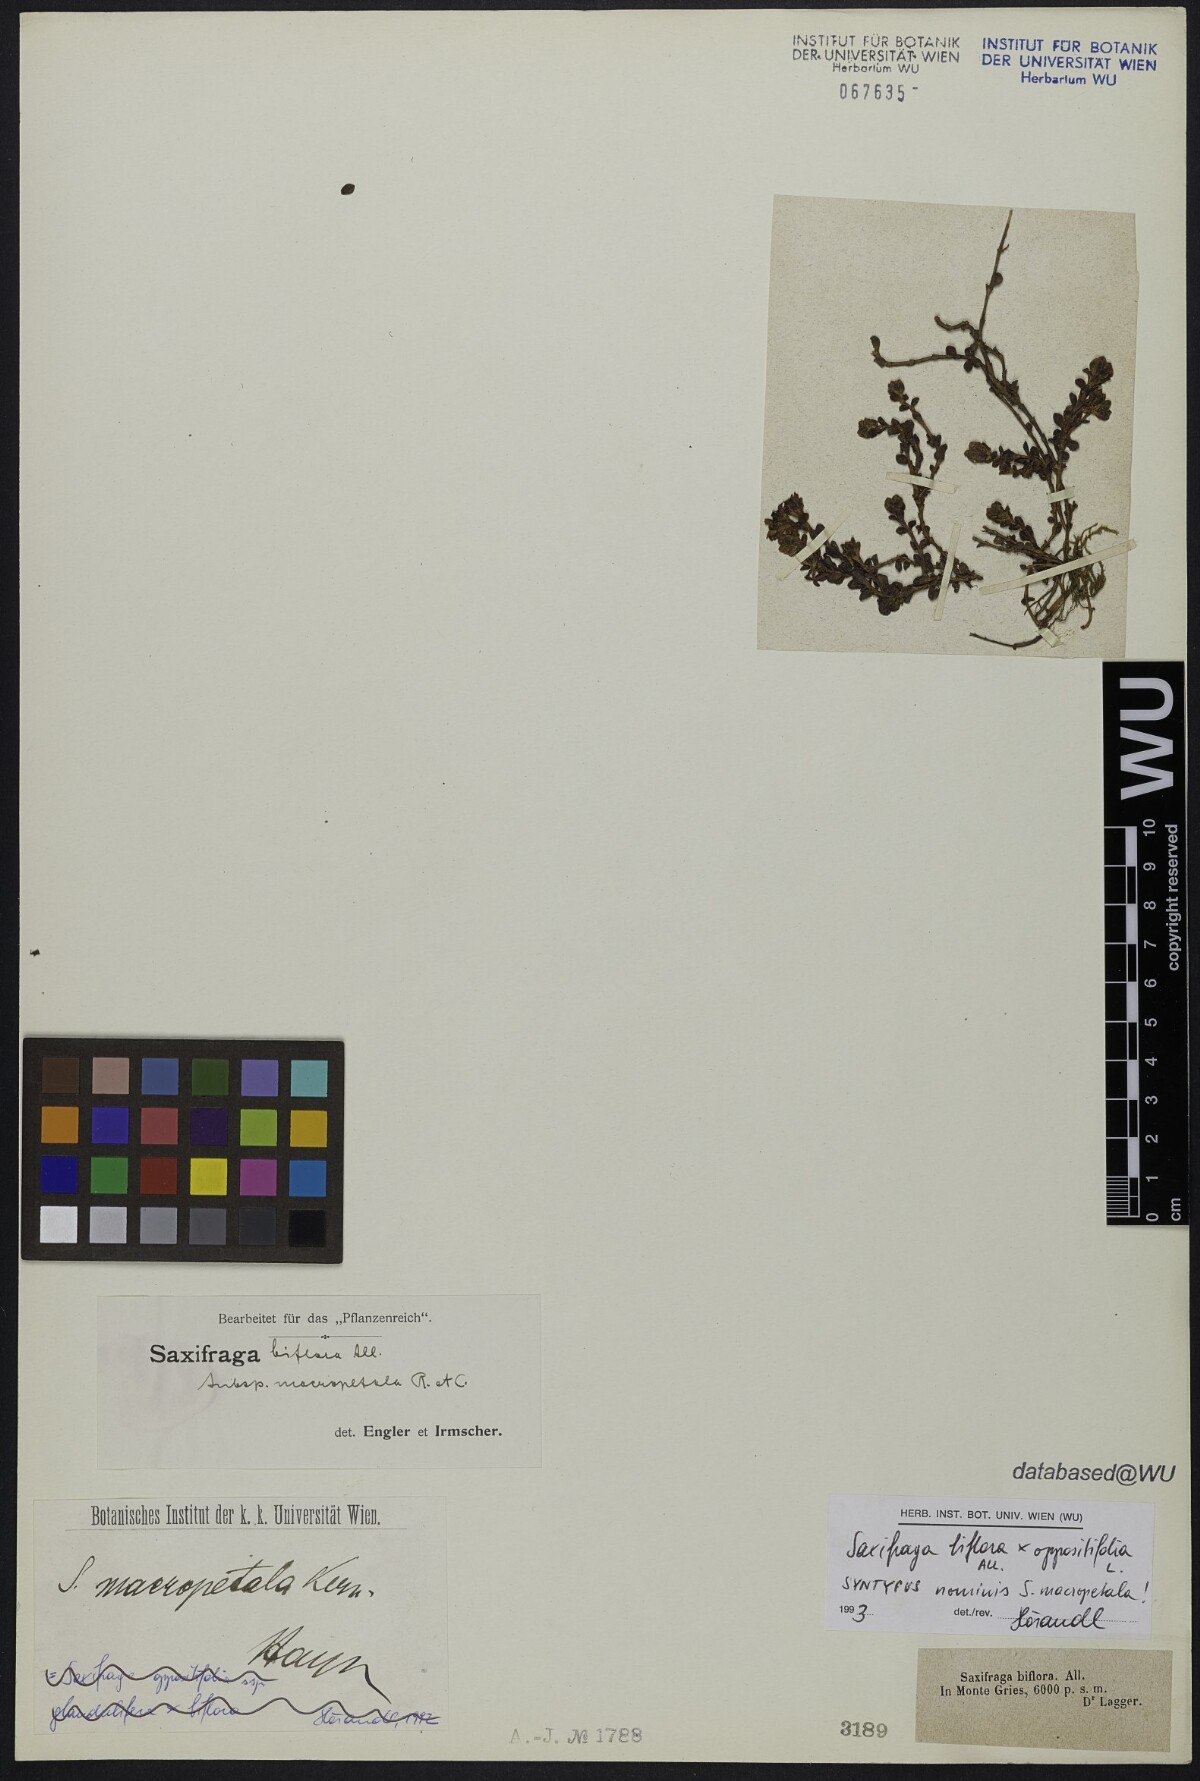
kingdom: Plantae
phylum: Tracheophyta
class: Magnoliopsida
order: Saxifragales
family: Saxifragaceae
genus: Saxifraga
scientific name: Saxifraga kochii
